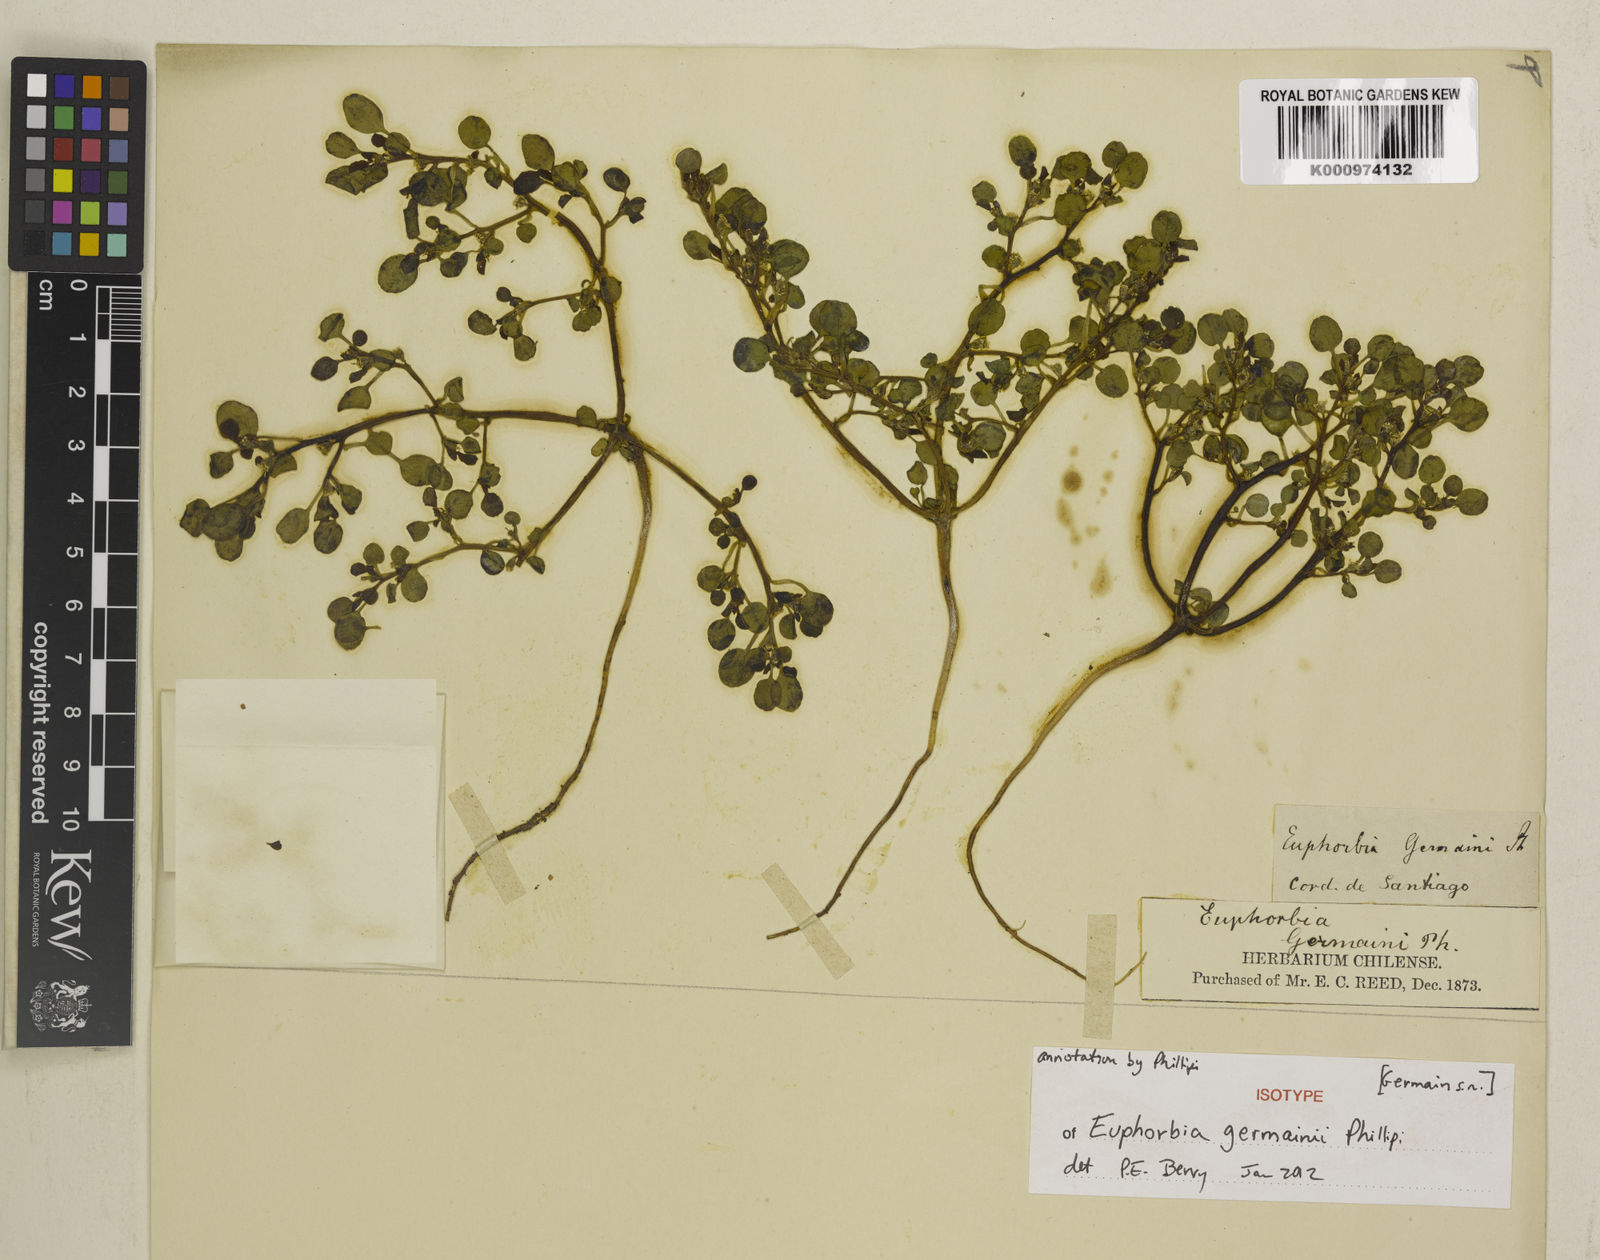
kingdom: Plantae
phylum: Tracheophyta
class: Liliopsida
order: Poales
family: Poaceae
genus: Agrostis
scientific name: Agrostis capillaris
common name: Colonial bentgrass
